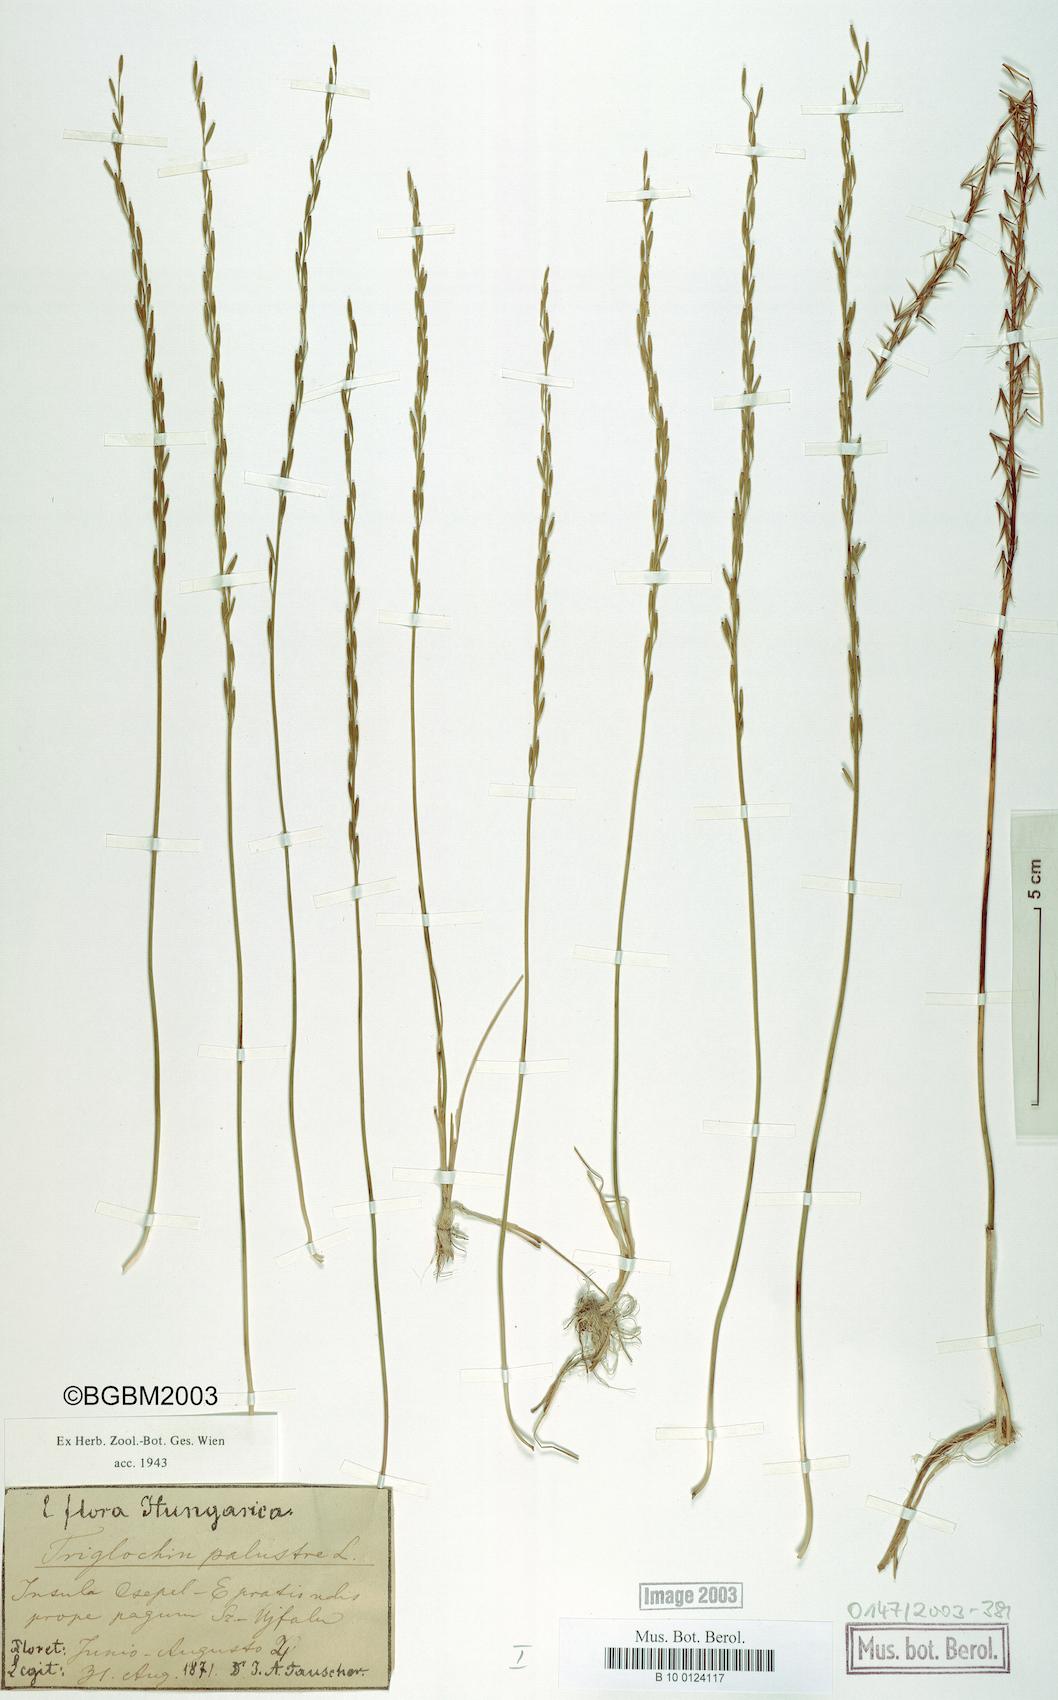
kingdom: Plantae
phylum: Tracheophyta
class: Liliopsida
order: Alismatales
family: Juncaginaceae
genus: Triglochin
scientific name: Triglochin palustris
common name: Marsh arrowgrass
